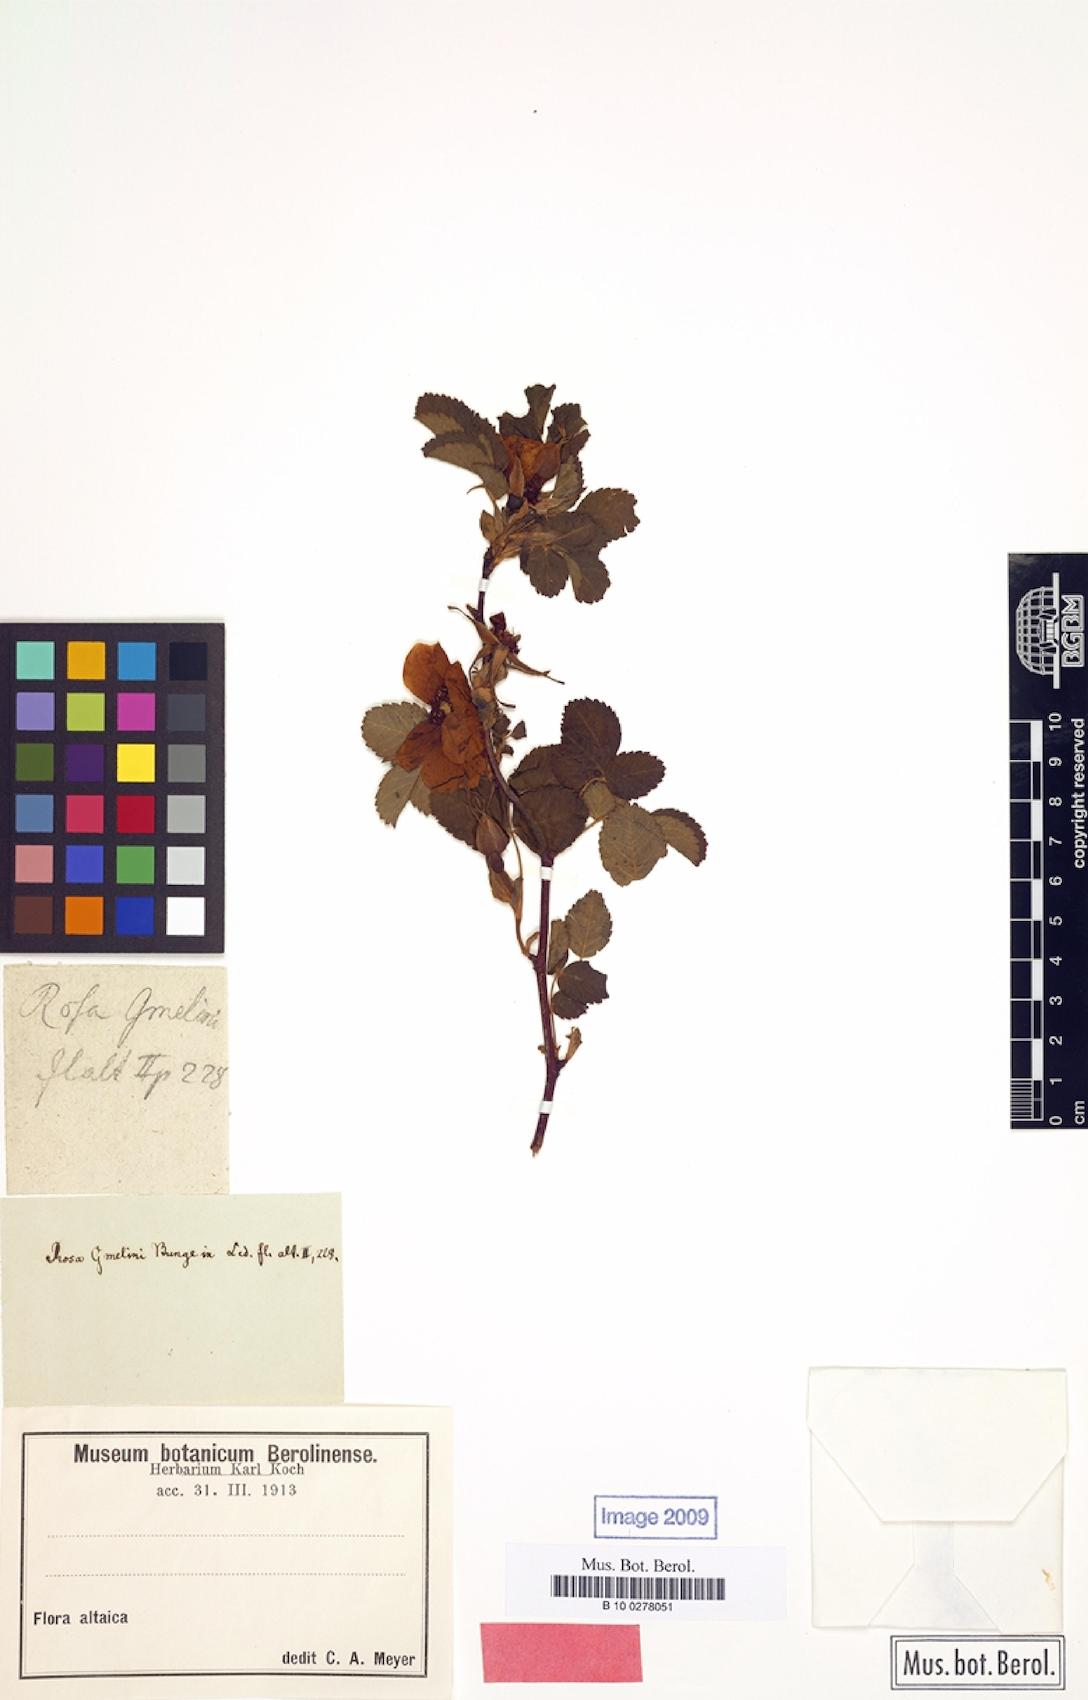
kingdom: Plantae
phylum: Tracheophyta
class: Magnoliopsida
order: Rosales
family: Rosaceae
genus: Rosa
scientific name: Rosa acicularis
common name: Prickly rose
